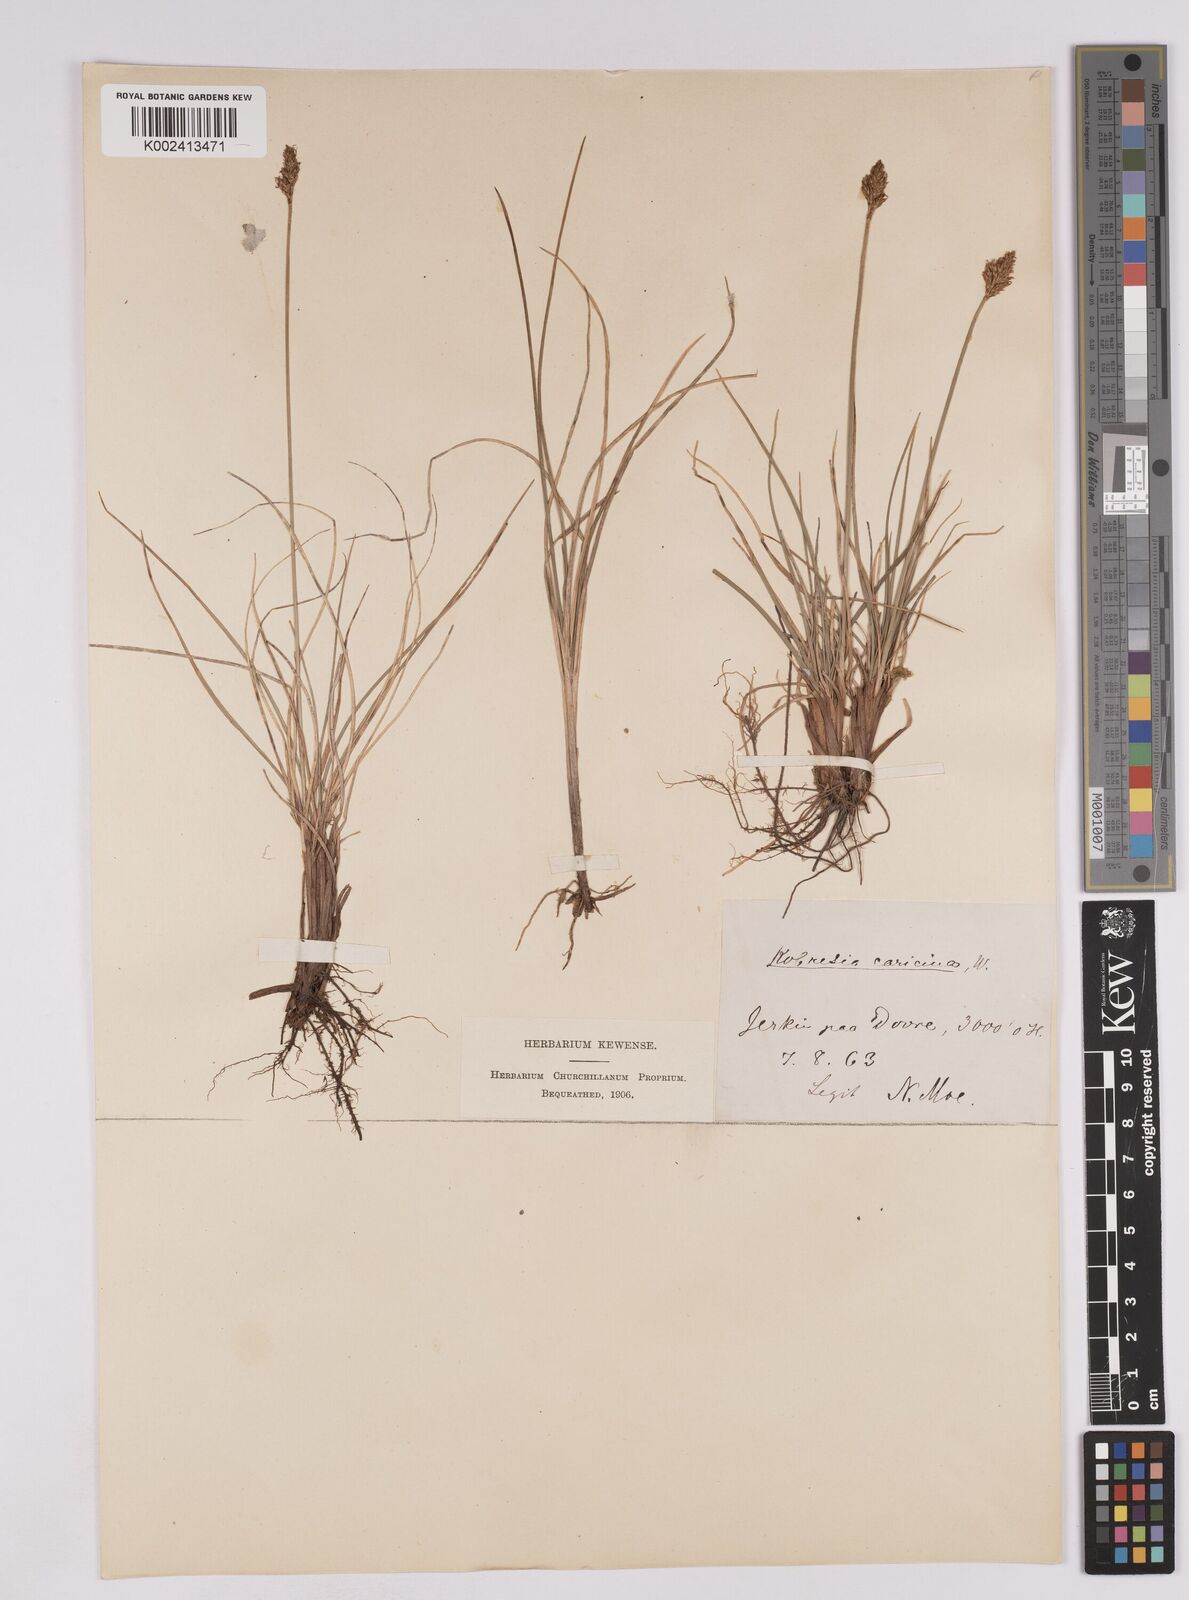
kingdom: Plantae
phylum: Tracheophyta
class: Liliopsida
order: Poales
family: Cyperaceae
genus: Carex
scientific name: Carex simpliciuscula
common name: Simple bog sedge
